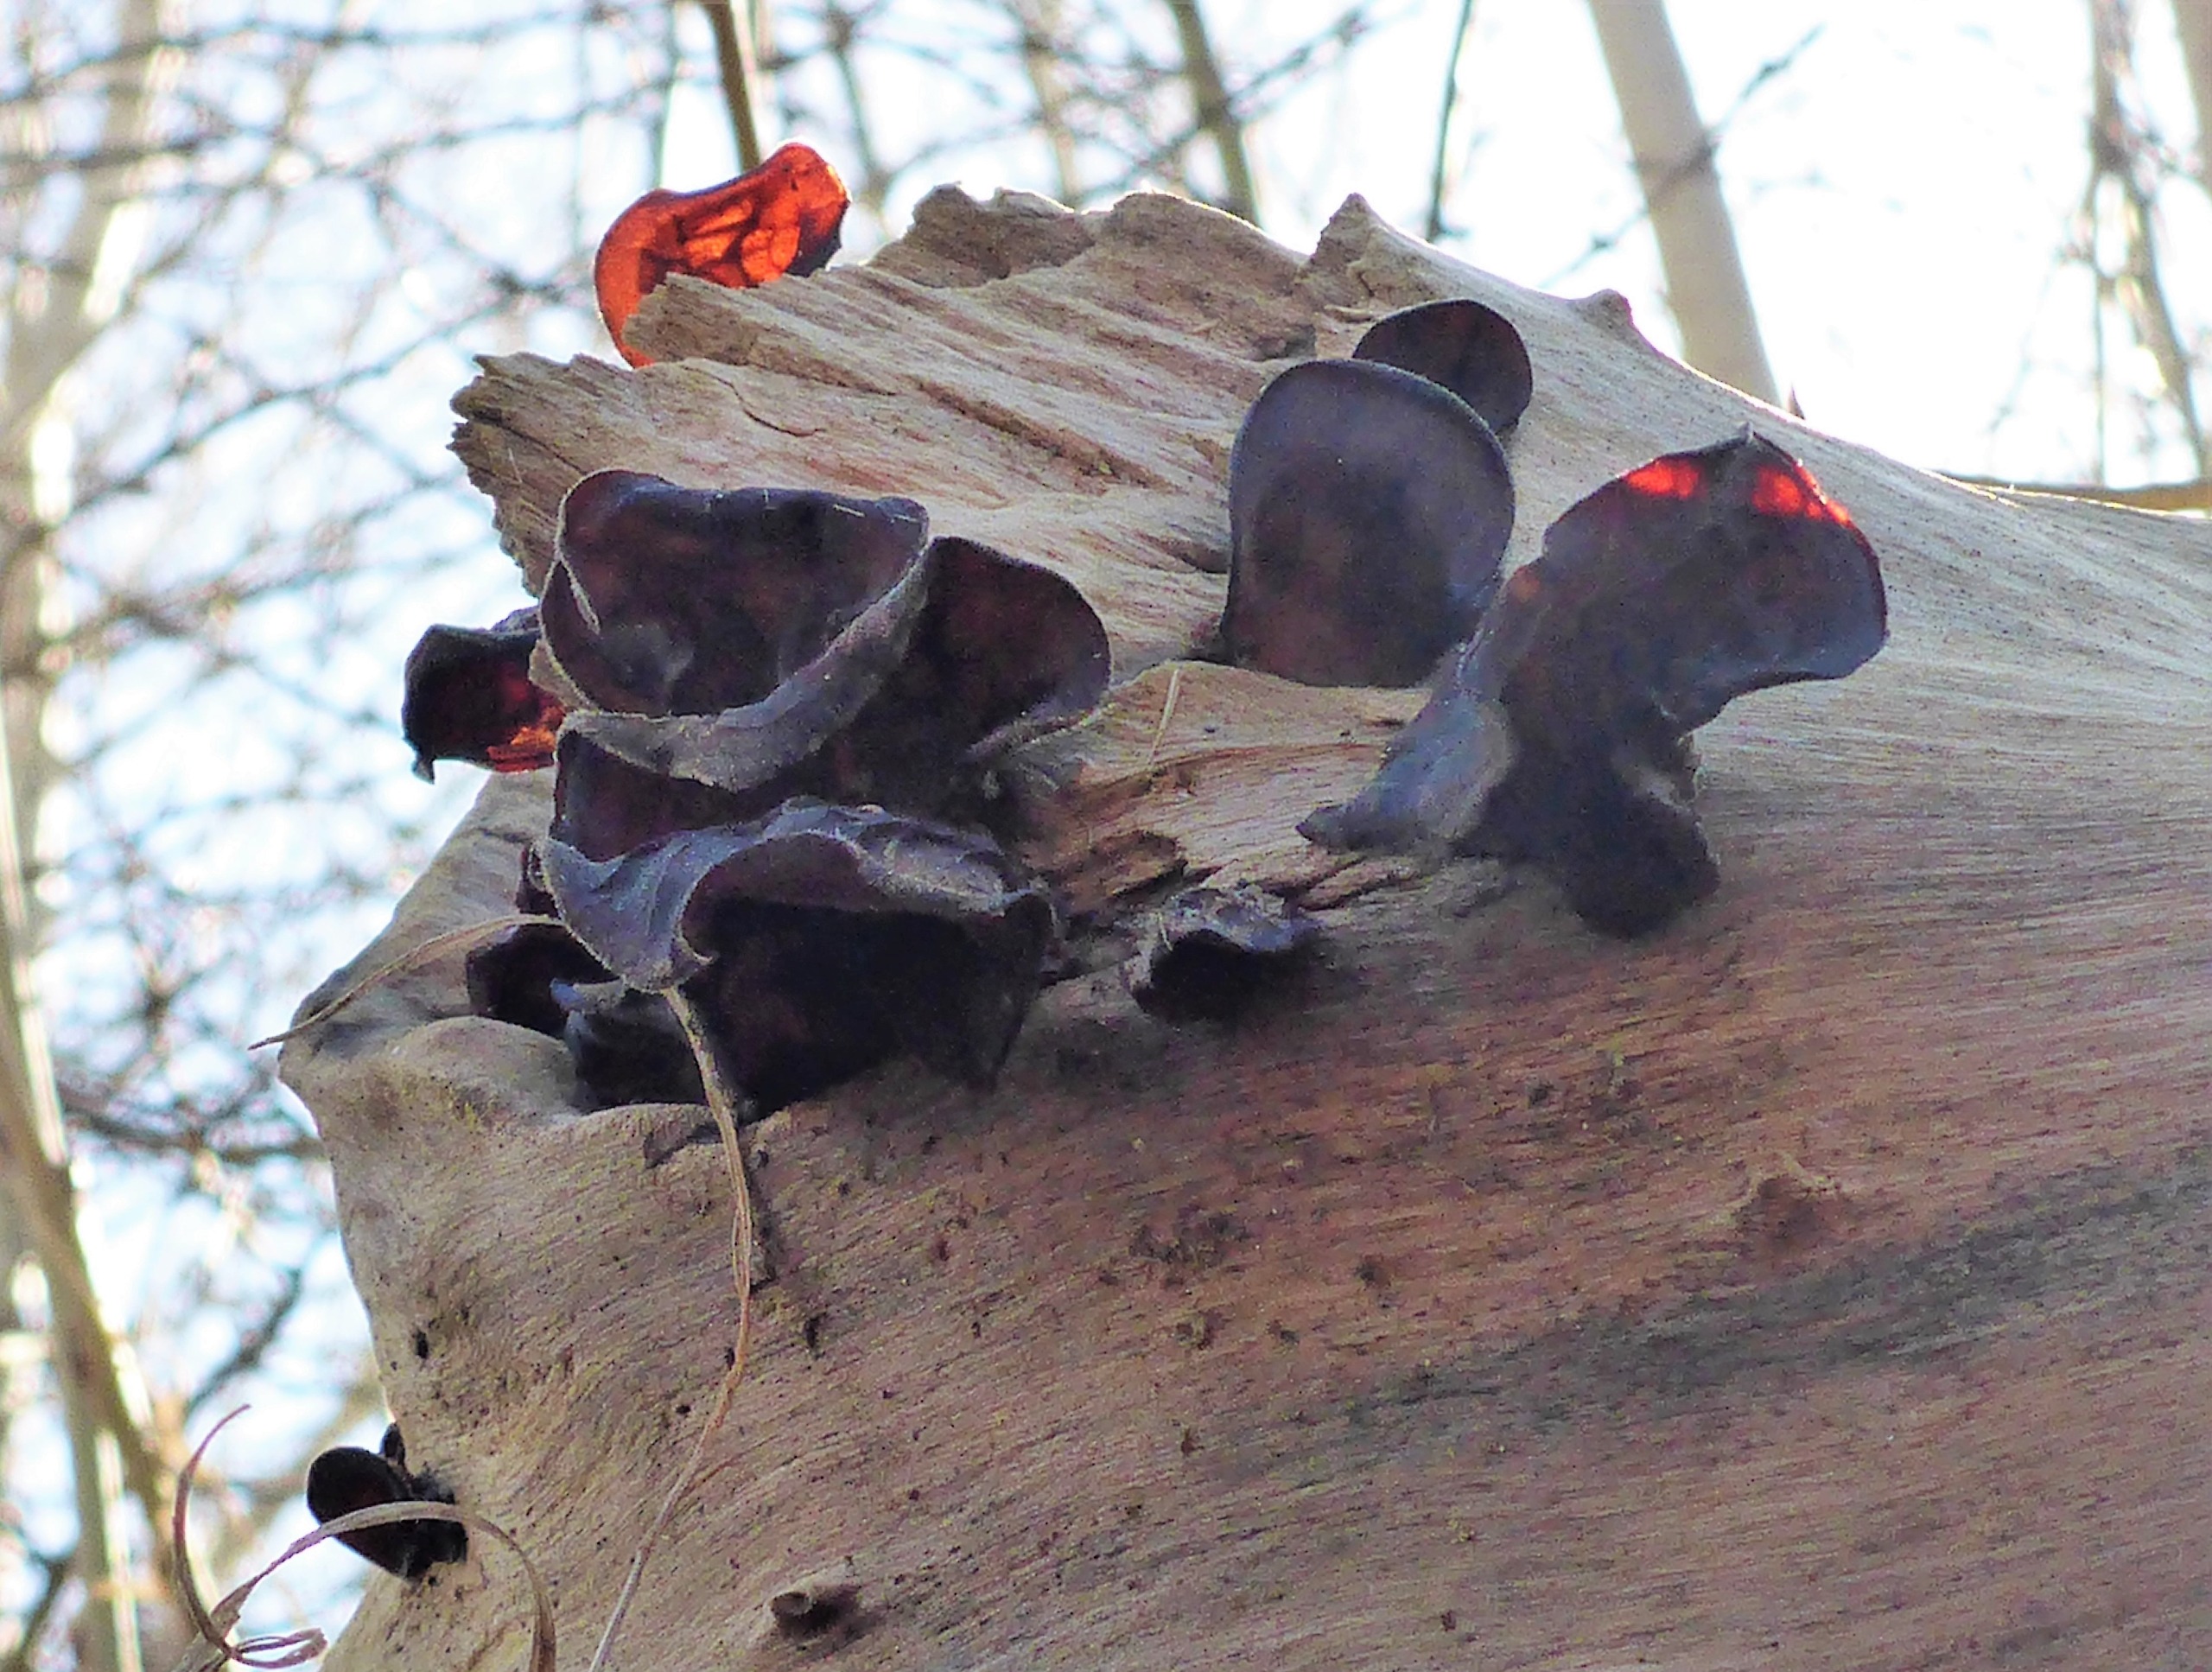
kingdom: Fungi
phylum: Basidiomycota
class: Agaricomycetes
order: Auriculariales
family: Auriculariaceae
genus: Auricularia
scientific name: Auricularia auricula-judae
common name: Almindelig judasøre
